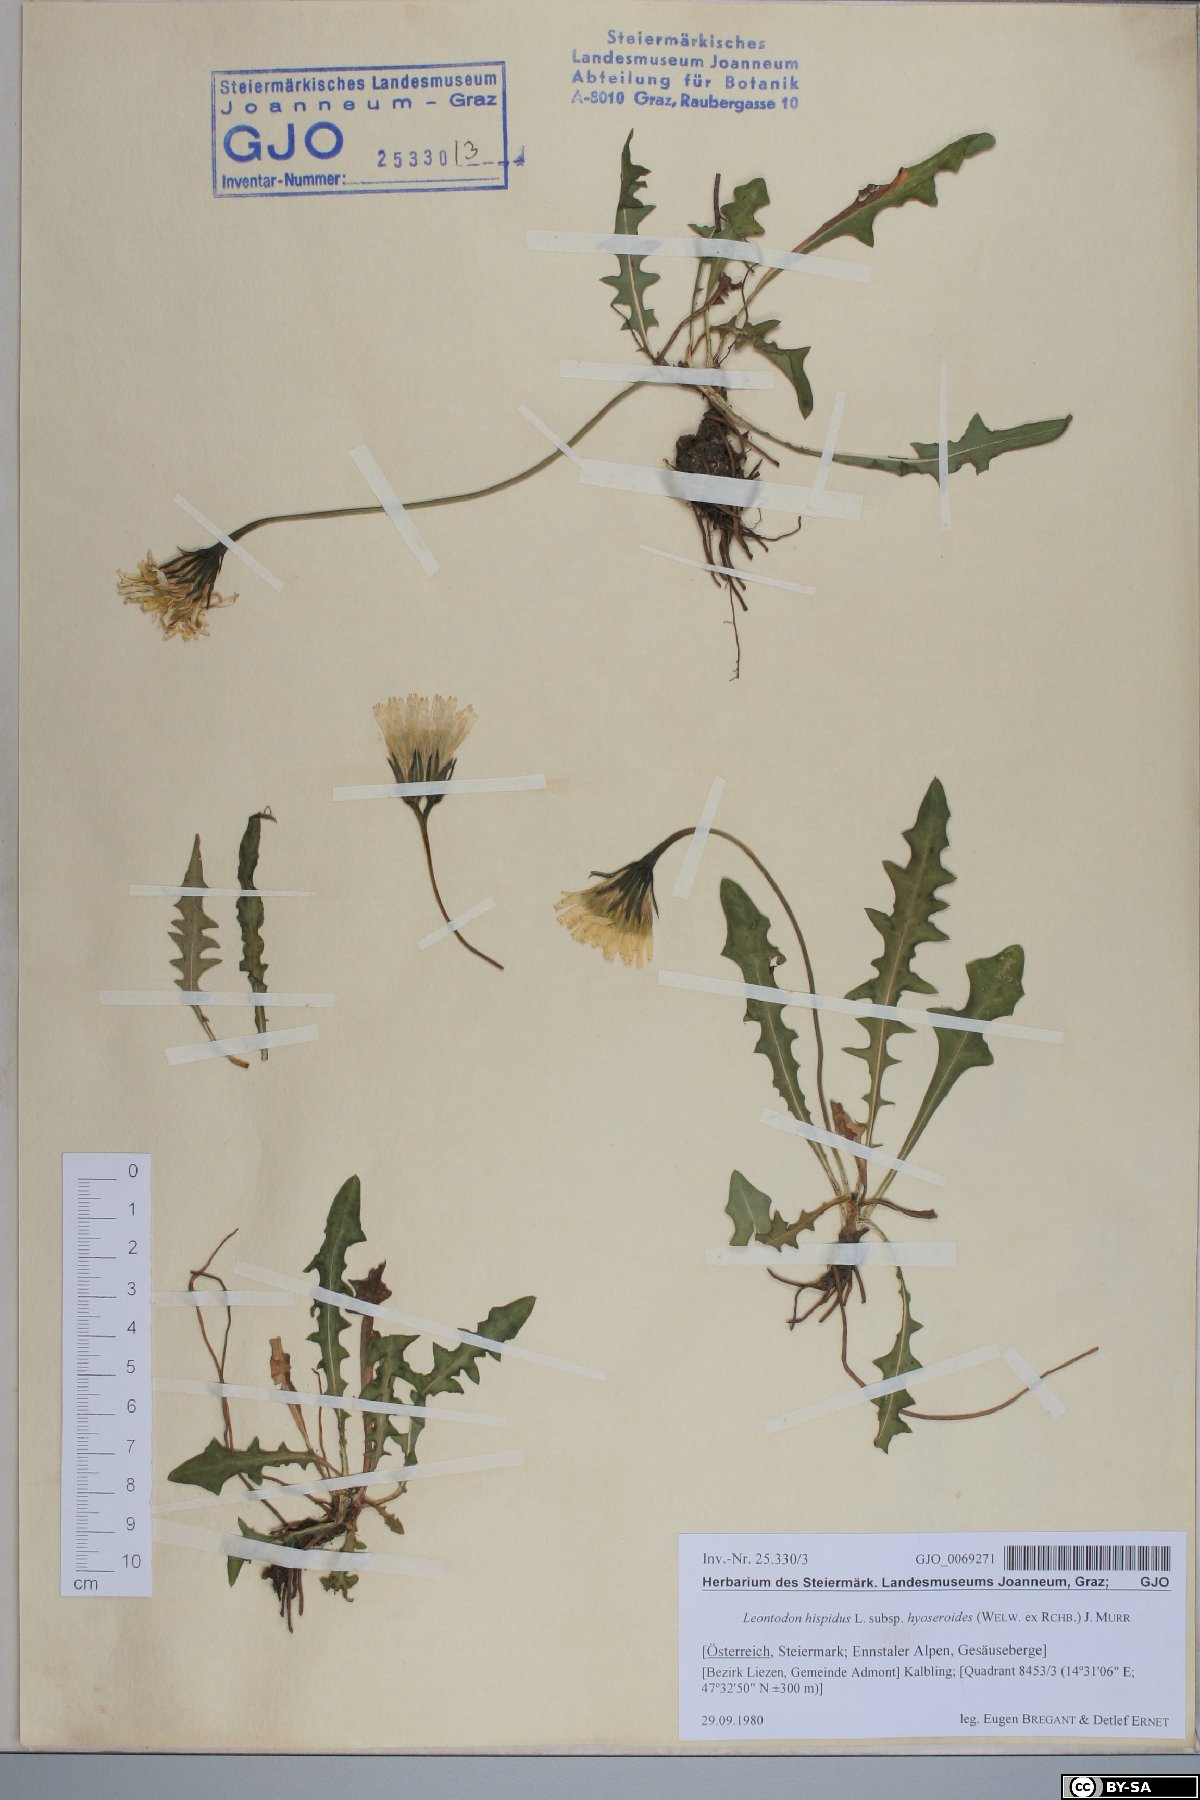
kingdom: Plantae
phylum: Tracheophyta
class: Magnoliopsida
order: Asterales
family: Asteraceae
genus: Leontodon
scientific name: Leontodon hyoseroides
